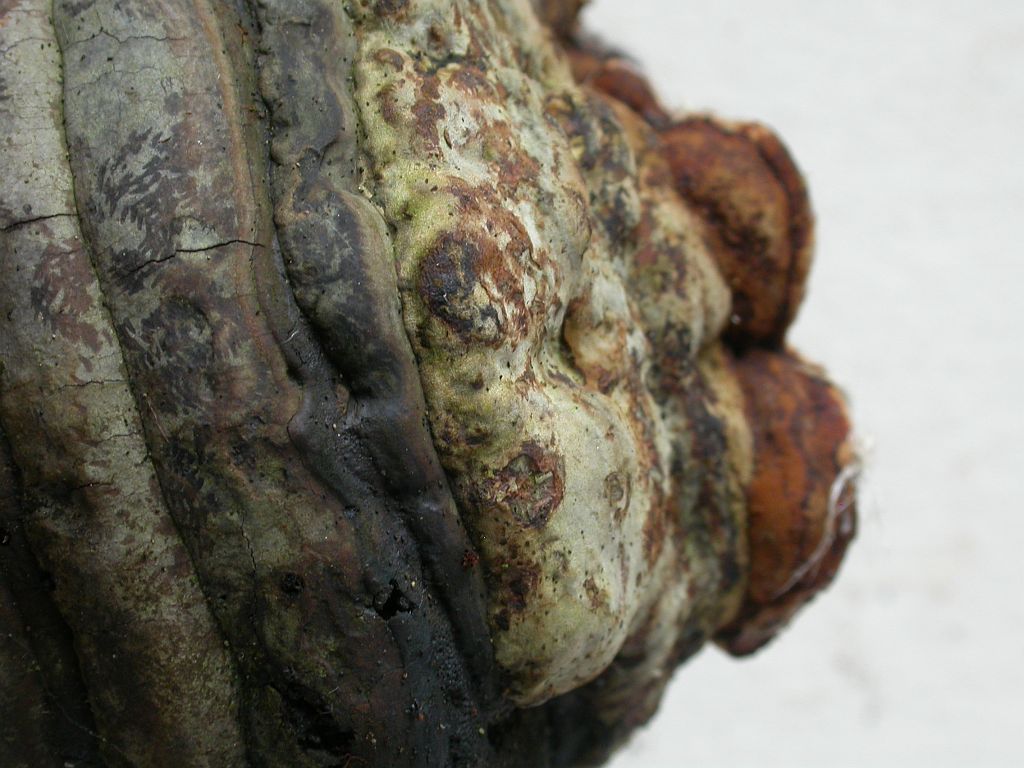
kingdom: Fungi
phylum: Basidiomycota
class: Agaricomycetes
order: Polyporales
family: Polyporaceae
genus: Fomes
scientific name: Fomes fomentarius
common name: tøndersvamp
